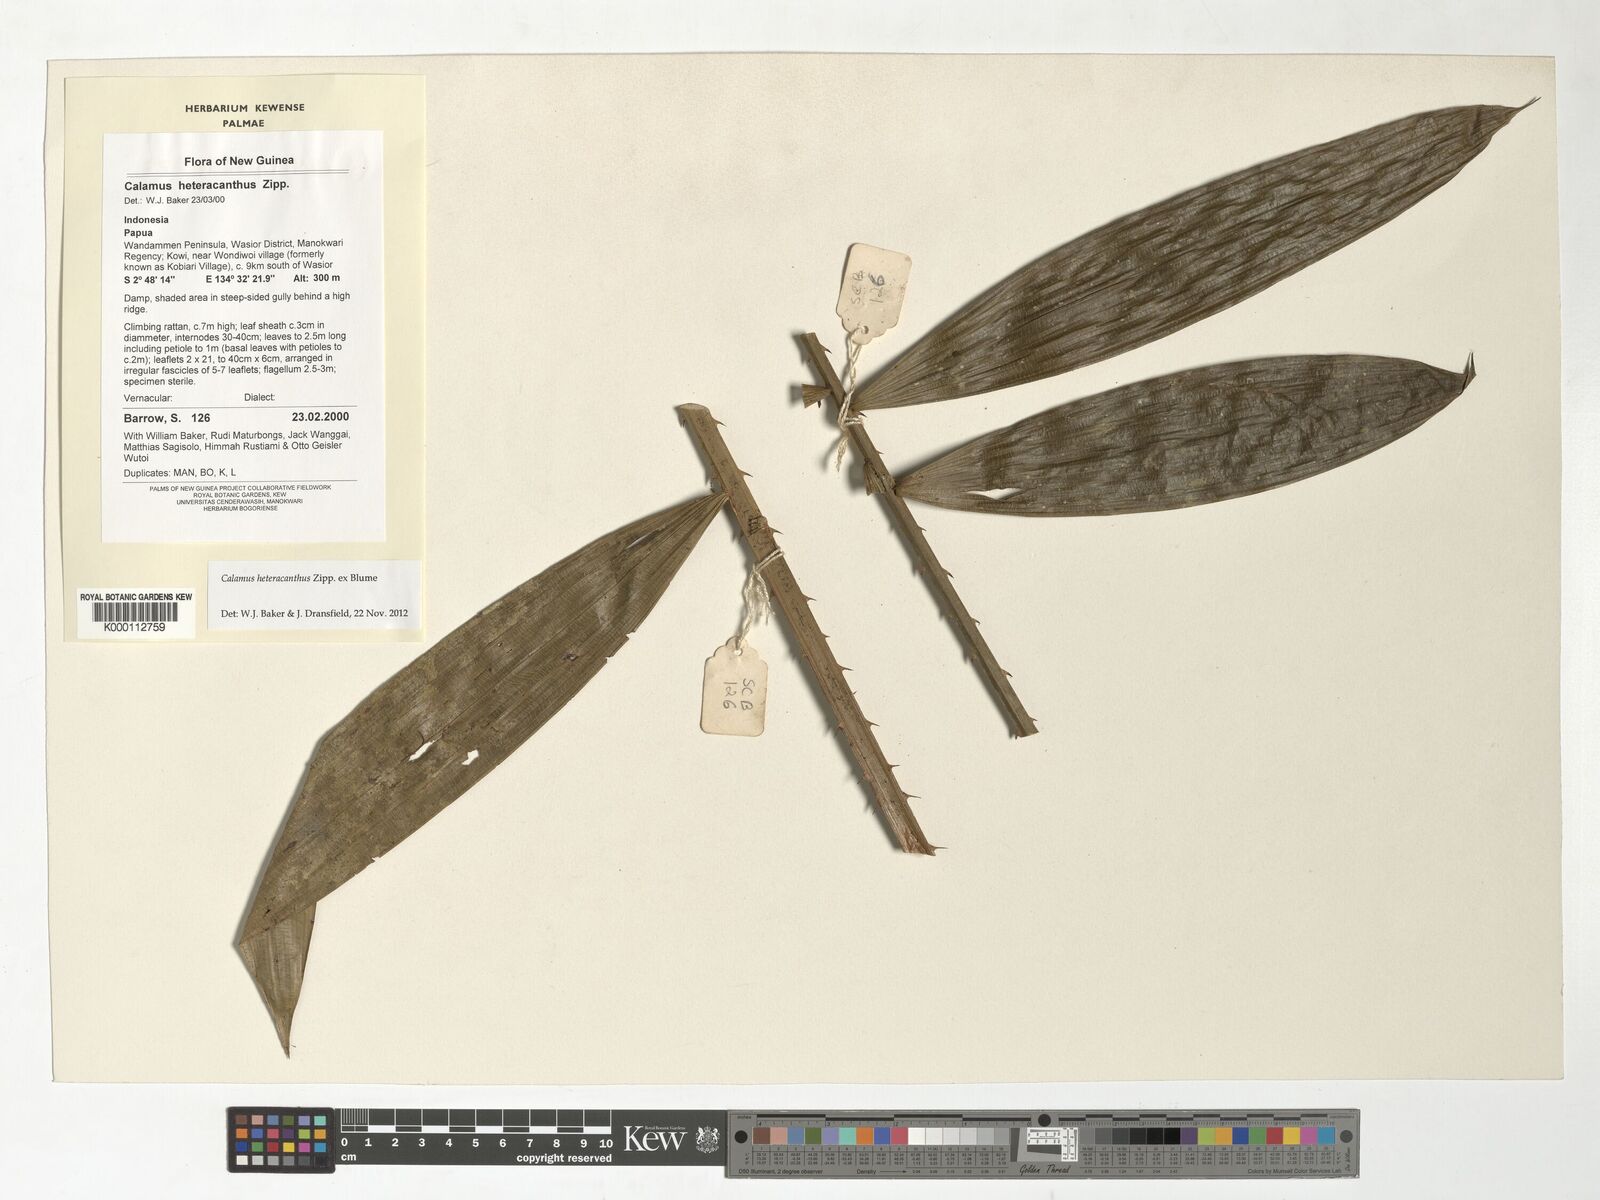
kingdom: Plantae
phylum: Tracheophyta
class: Liliopsida
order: Arecales
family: Arecaceae
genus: Calamus
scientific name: Calamus heteracanthus
